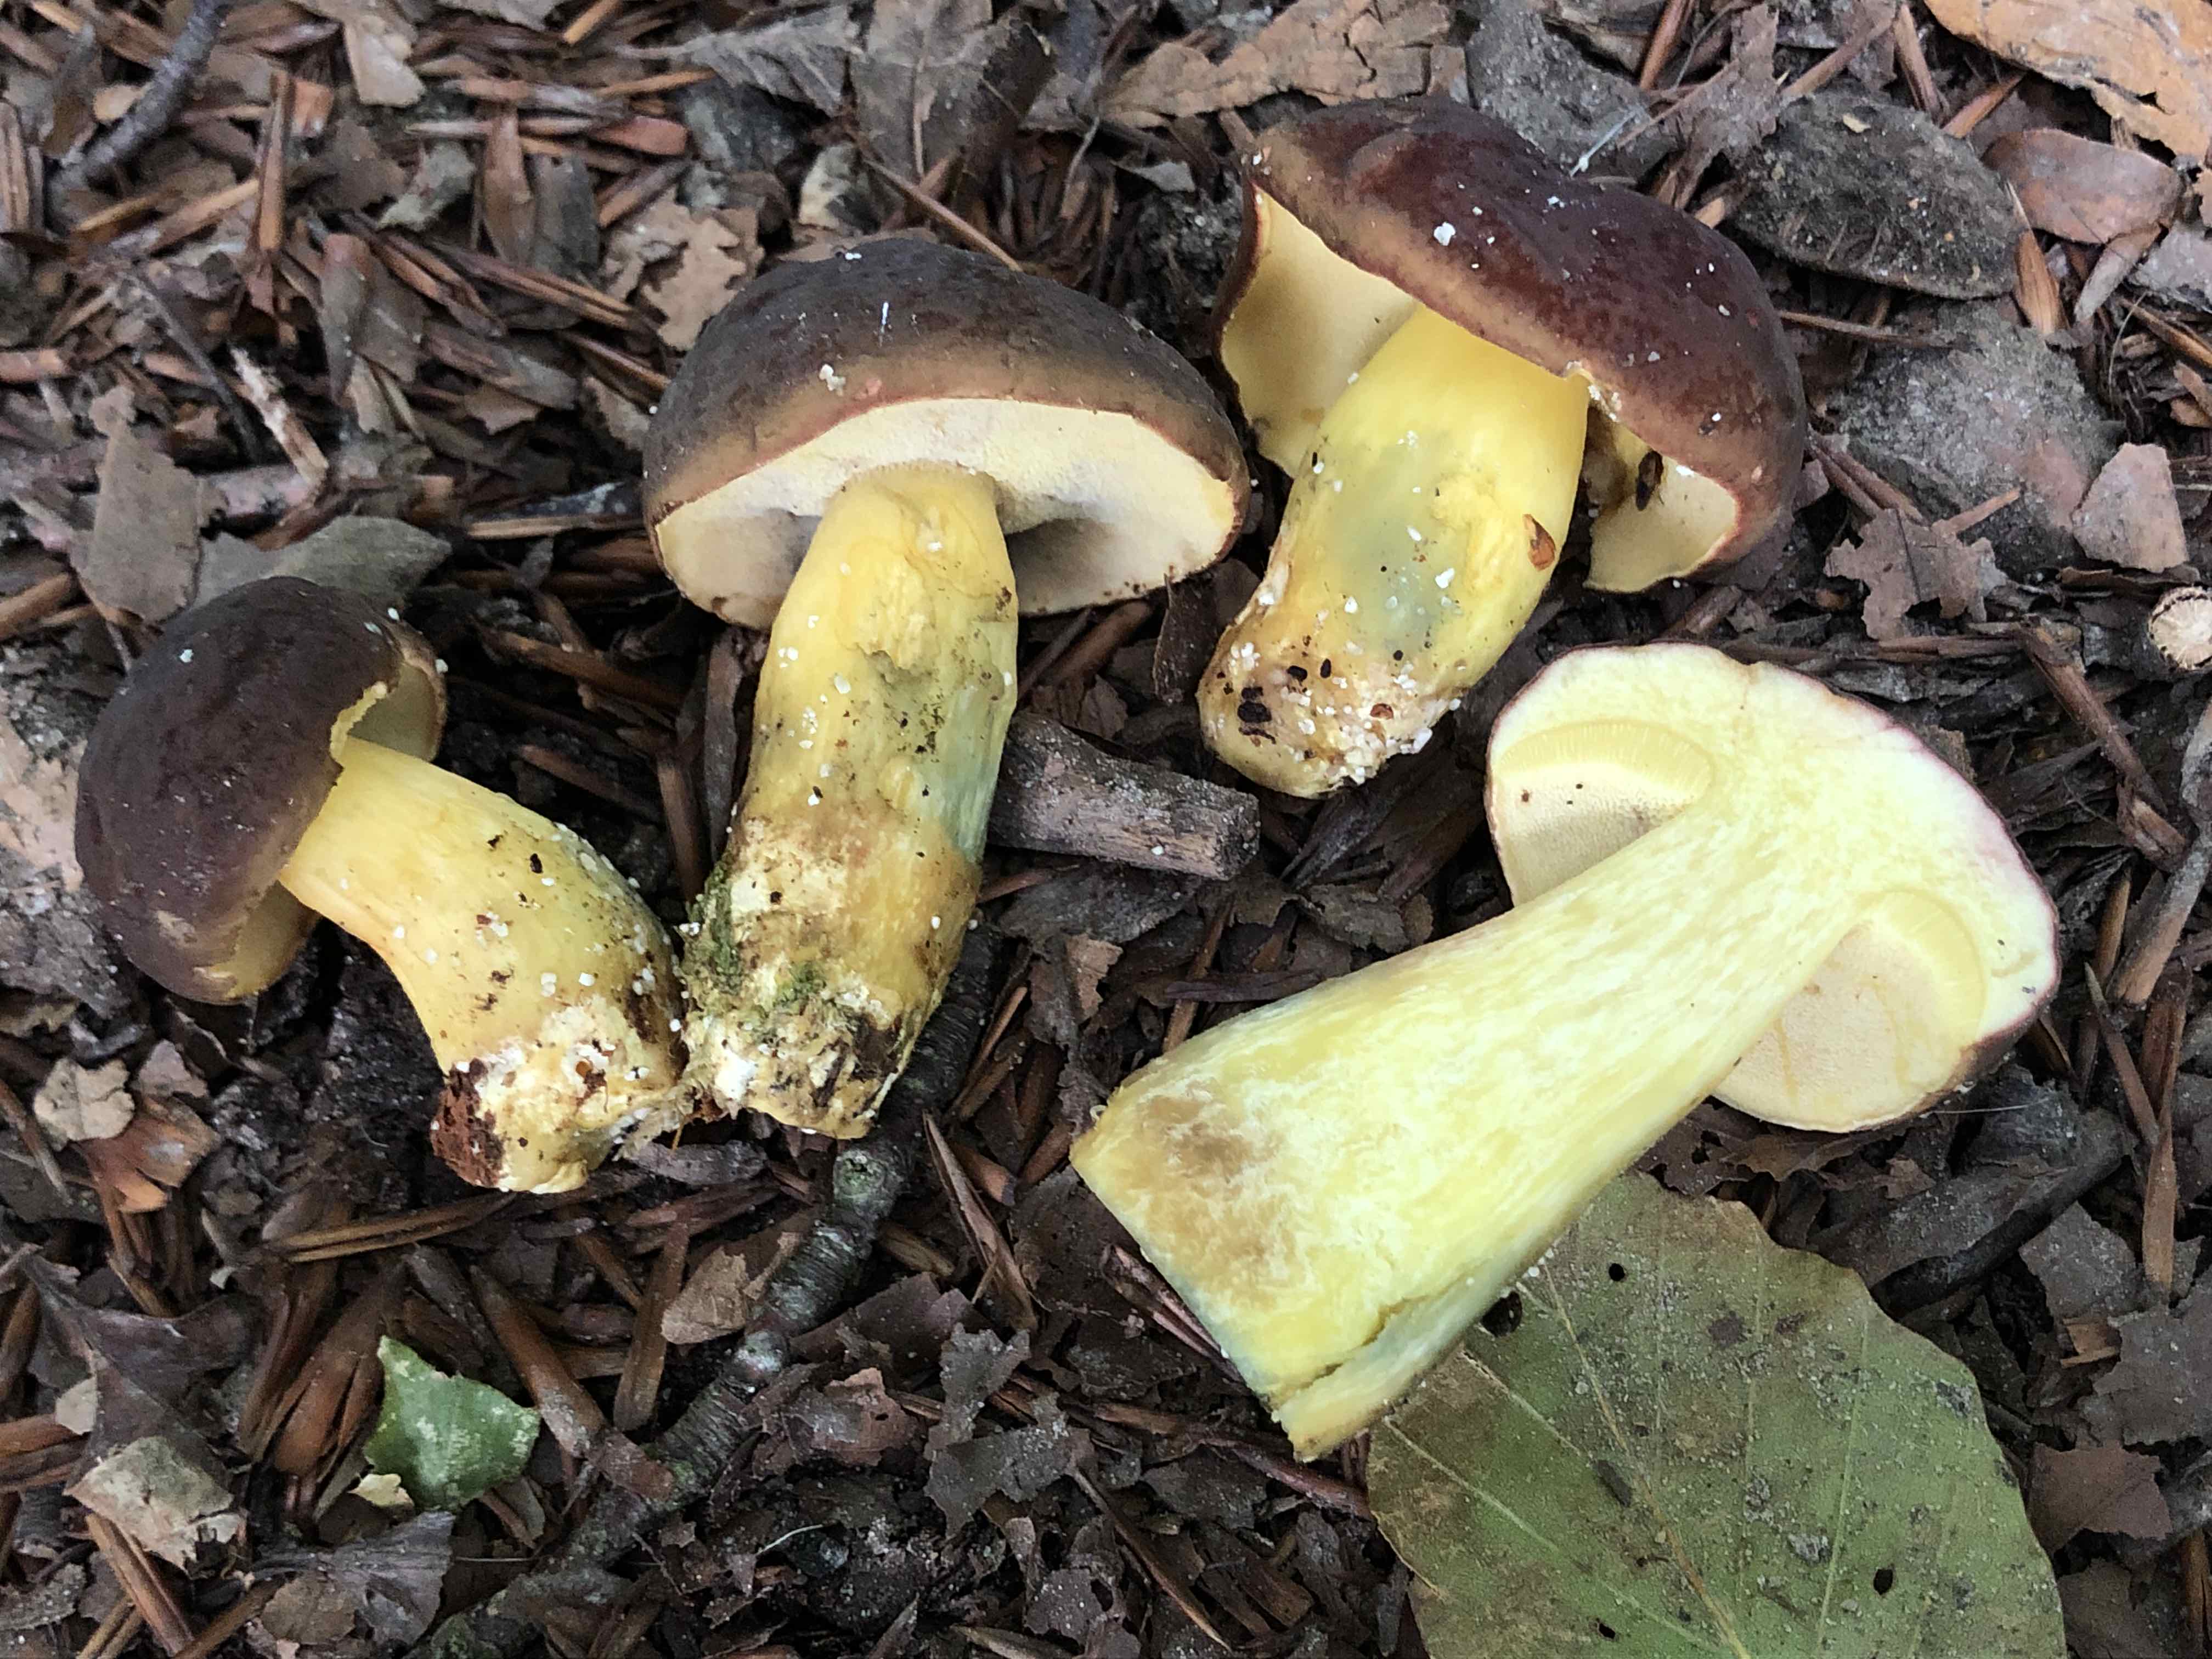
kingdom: Fungi
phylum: Basidiomycota
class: Agaricomycetes
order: Boletales
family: Boletaceae
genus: Xerocomellus
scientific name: Xerocomellus pruinatus
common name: dugget rørhat
